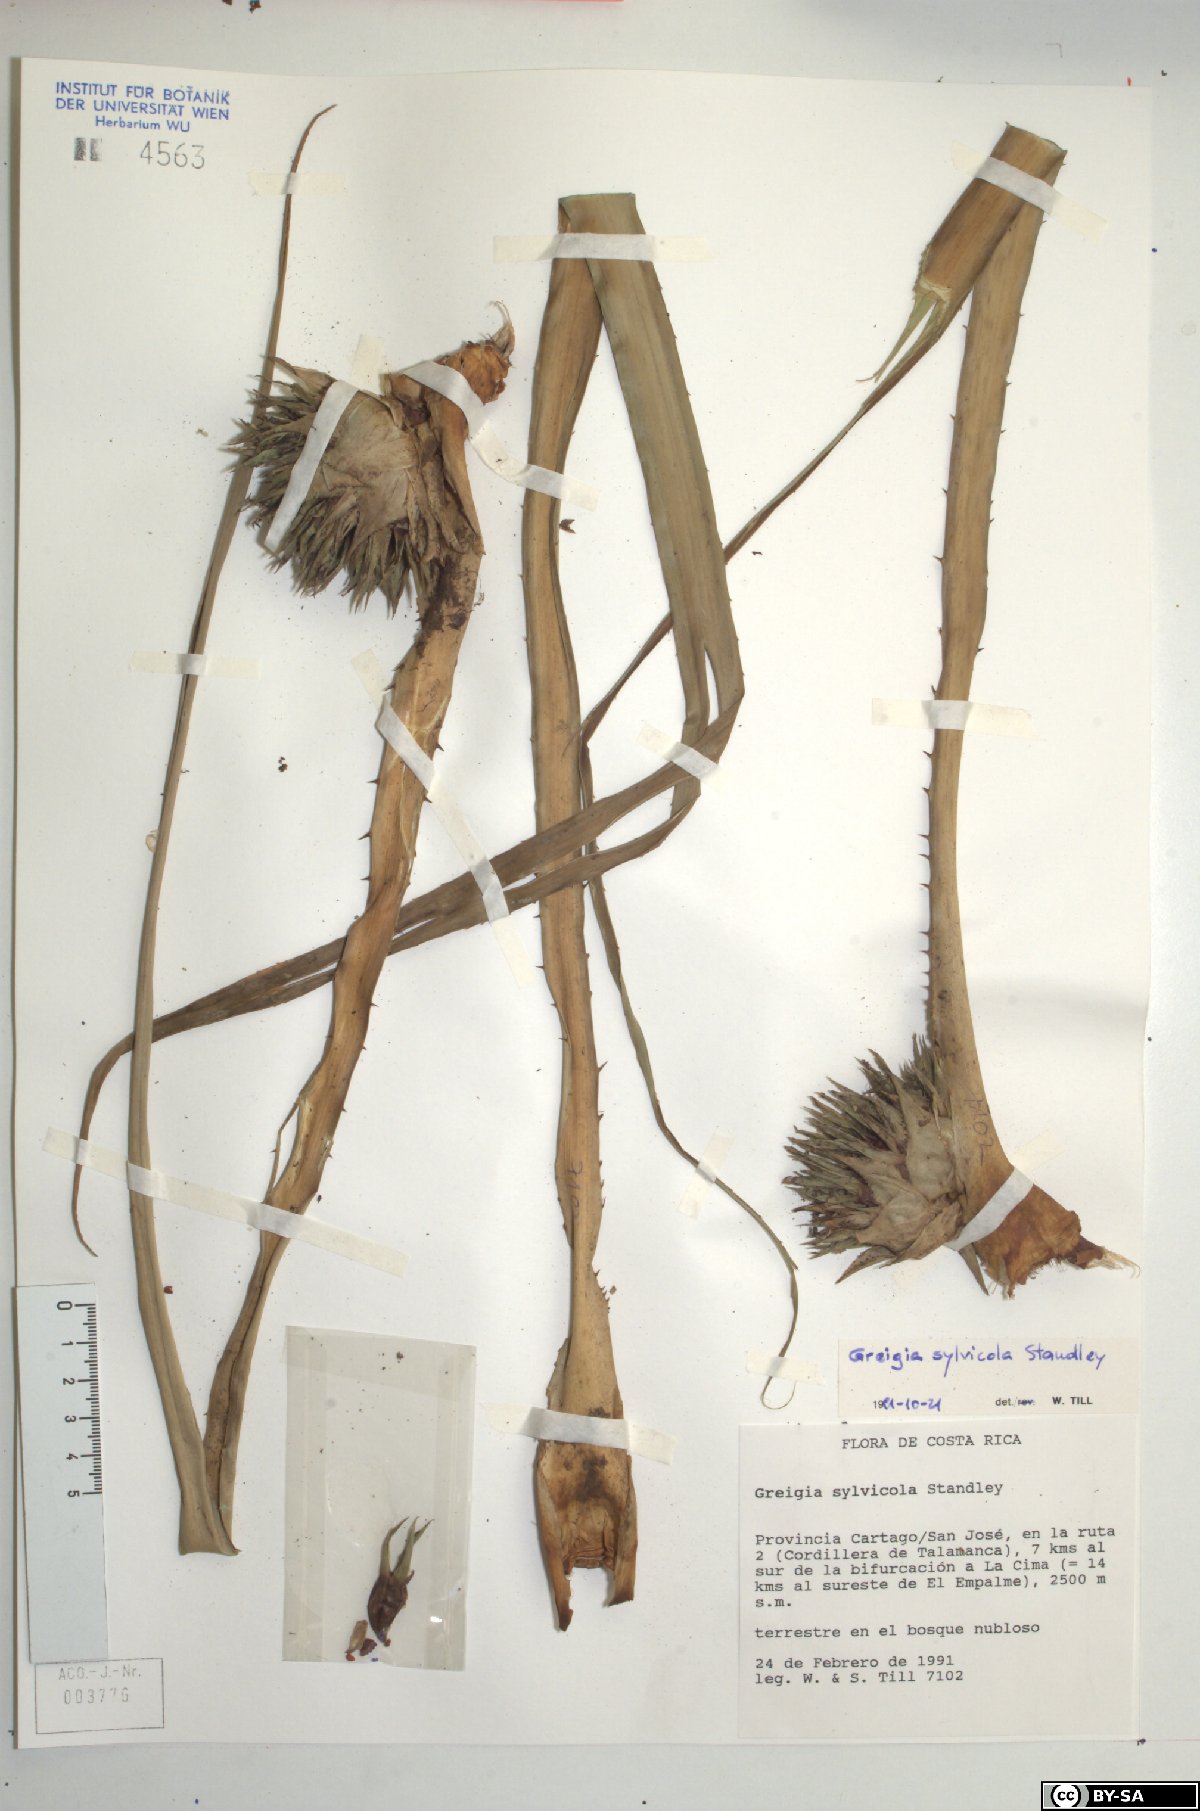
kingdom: Plantae
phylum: Tracheophyta
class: Liliopsida
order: Poales
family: Bromeliaceae
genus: Greigia
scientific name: Greigia sylvicola
